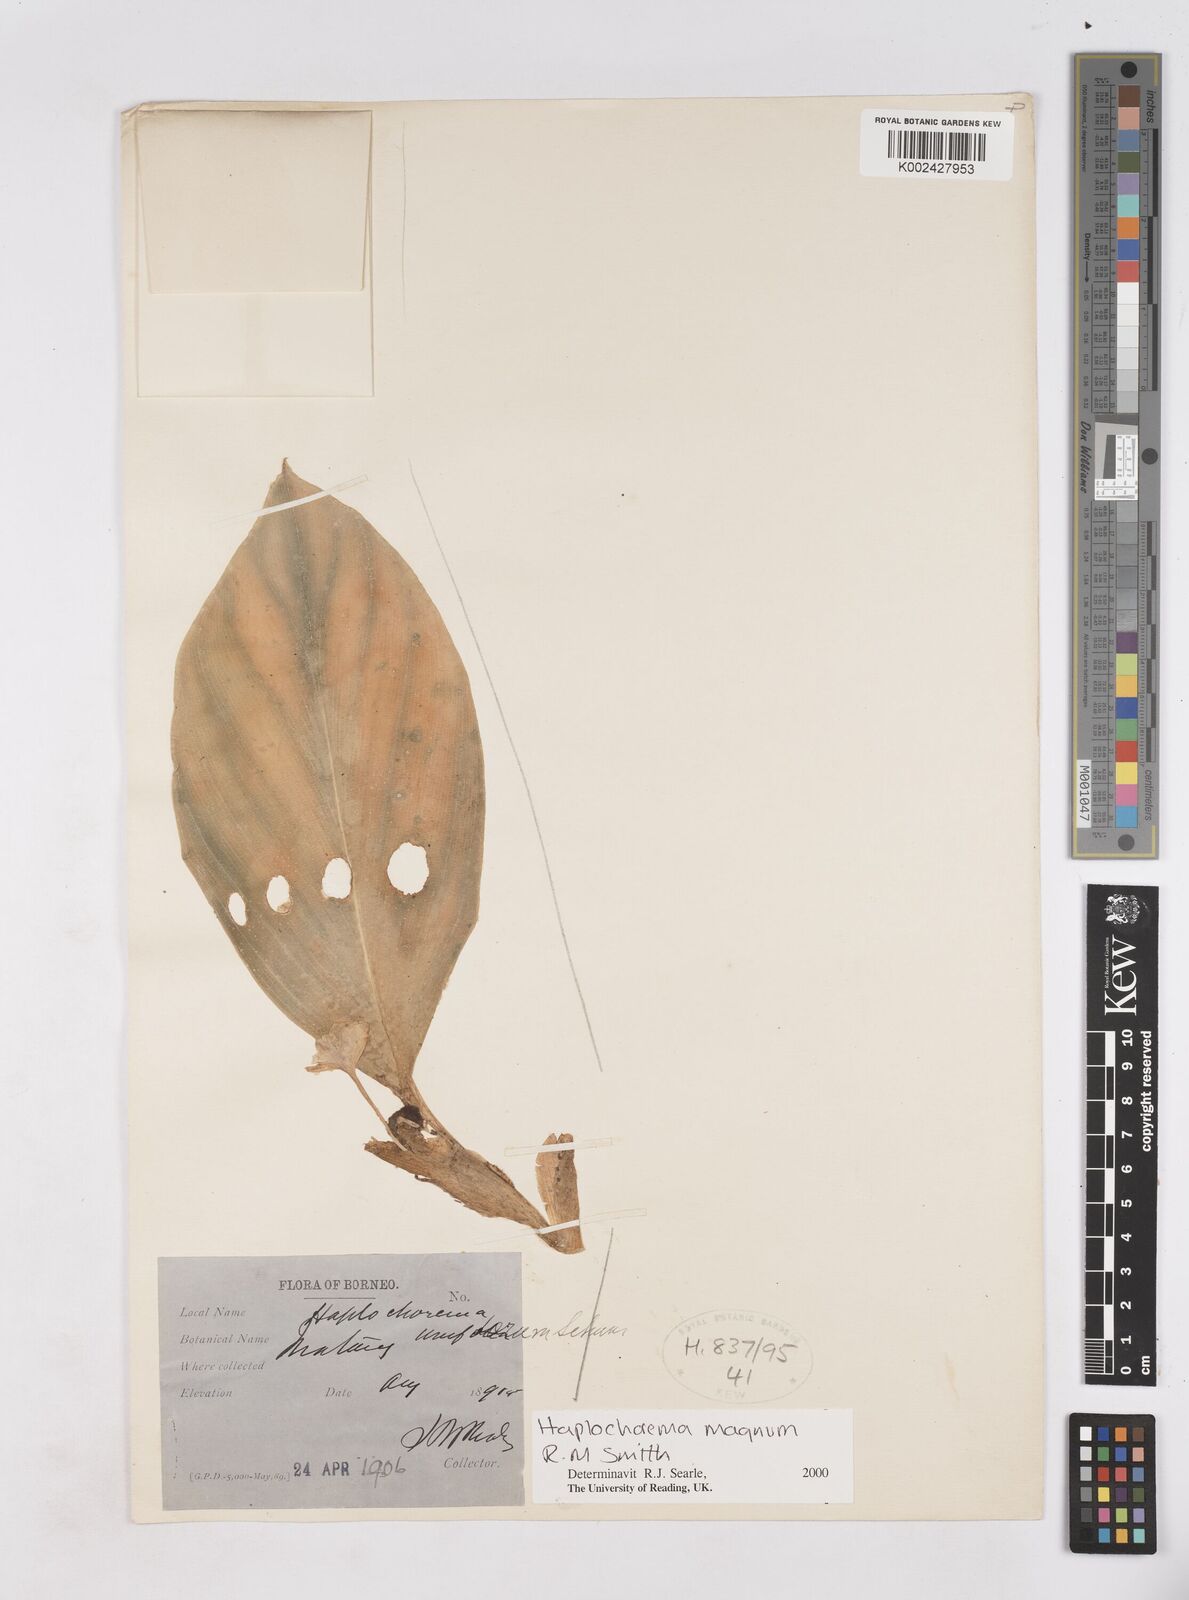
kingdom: Plantae
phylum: Tracheophyta
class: Liliopsida
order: Zingiberales
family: Zingiberaceae
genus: Boesenbergia
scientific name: Boesenbergia magna
